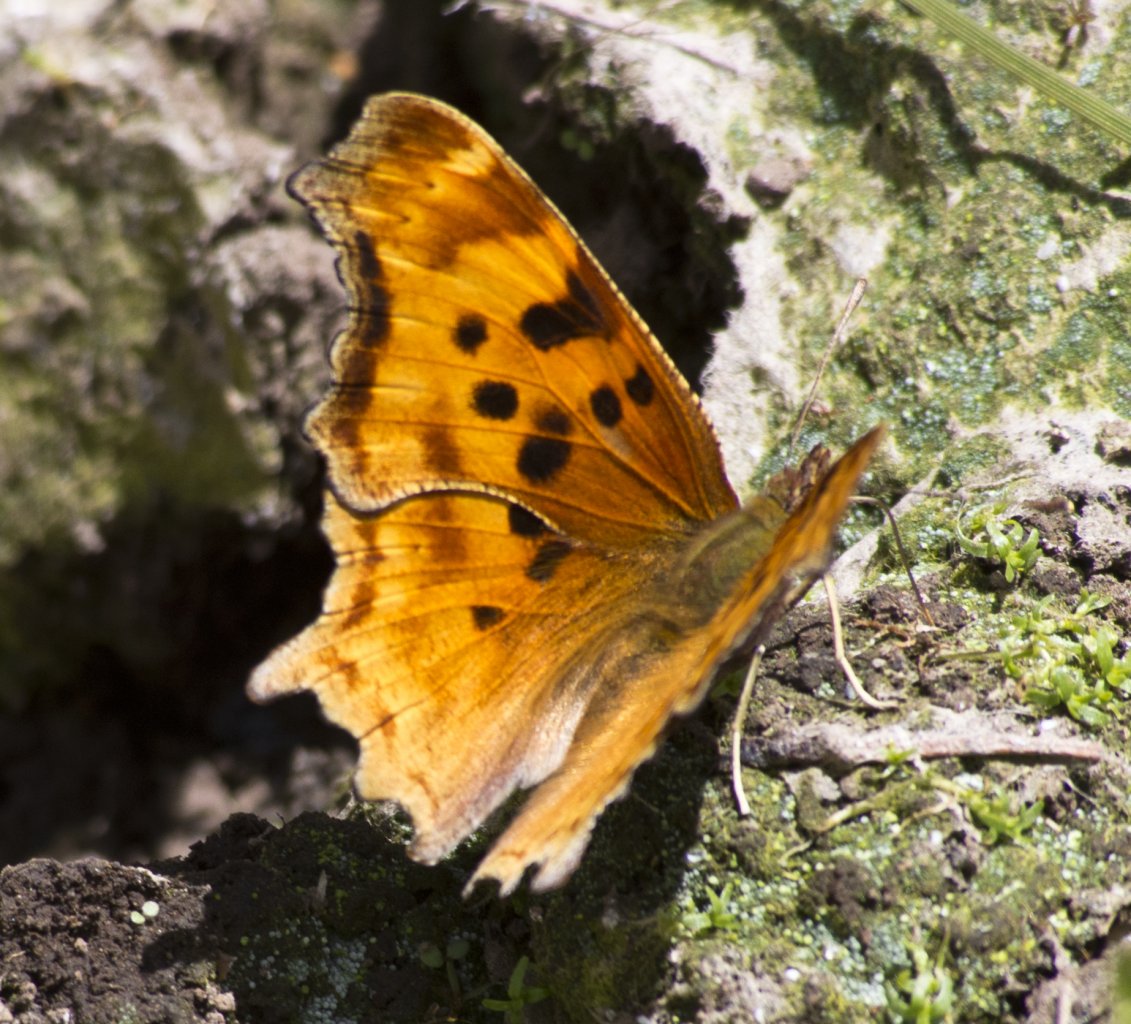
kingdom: Animalia
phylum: Arthropoda
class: Insecta
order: Lepidoptera
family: Nymphalidae
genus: Polygonia
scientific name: Polygonia satyrus
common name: Satyr Comma
